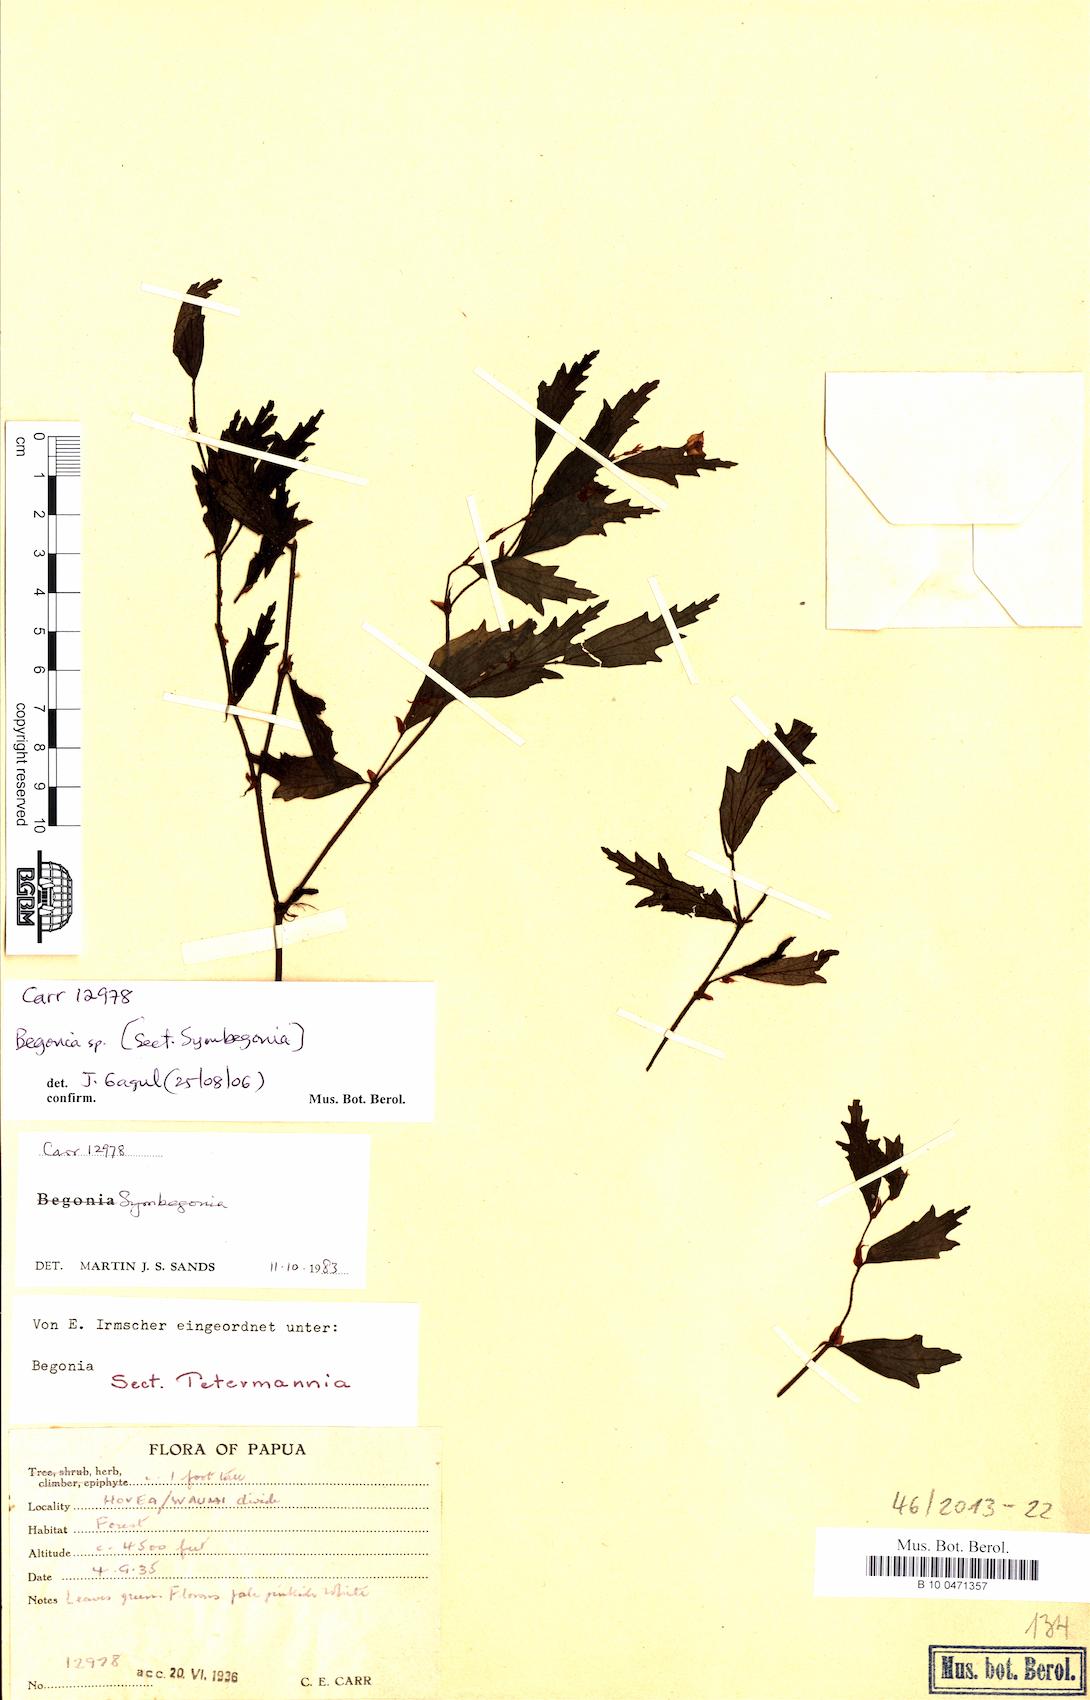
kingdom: Plantae
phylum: Tracheophyta
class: Magnoliopsida
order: Cucurbitales
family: Begoniaceae
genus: Begonia
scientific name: Begonia
